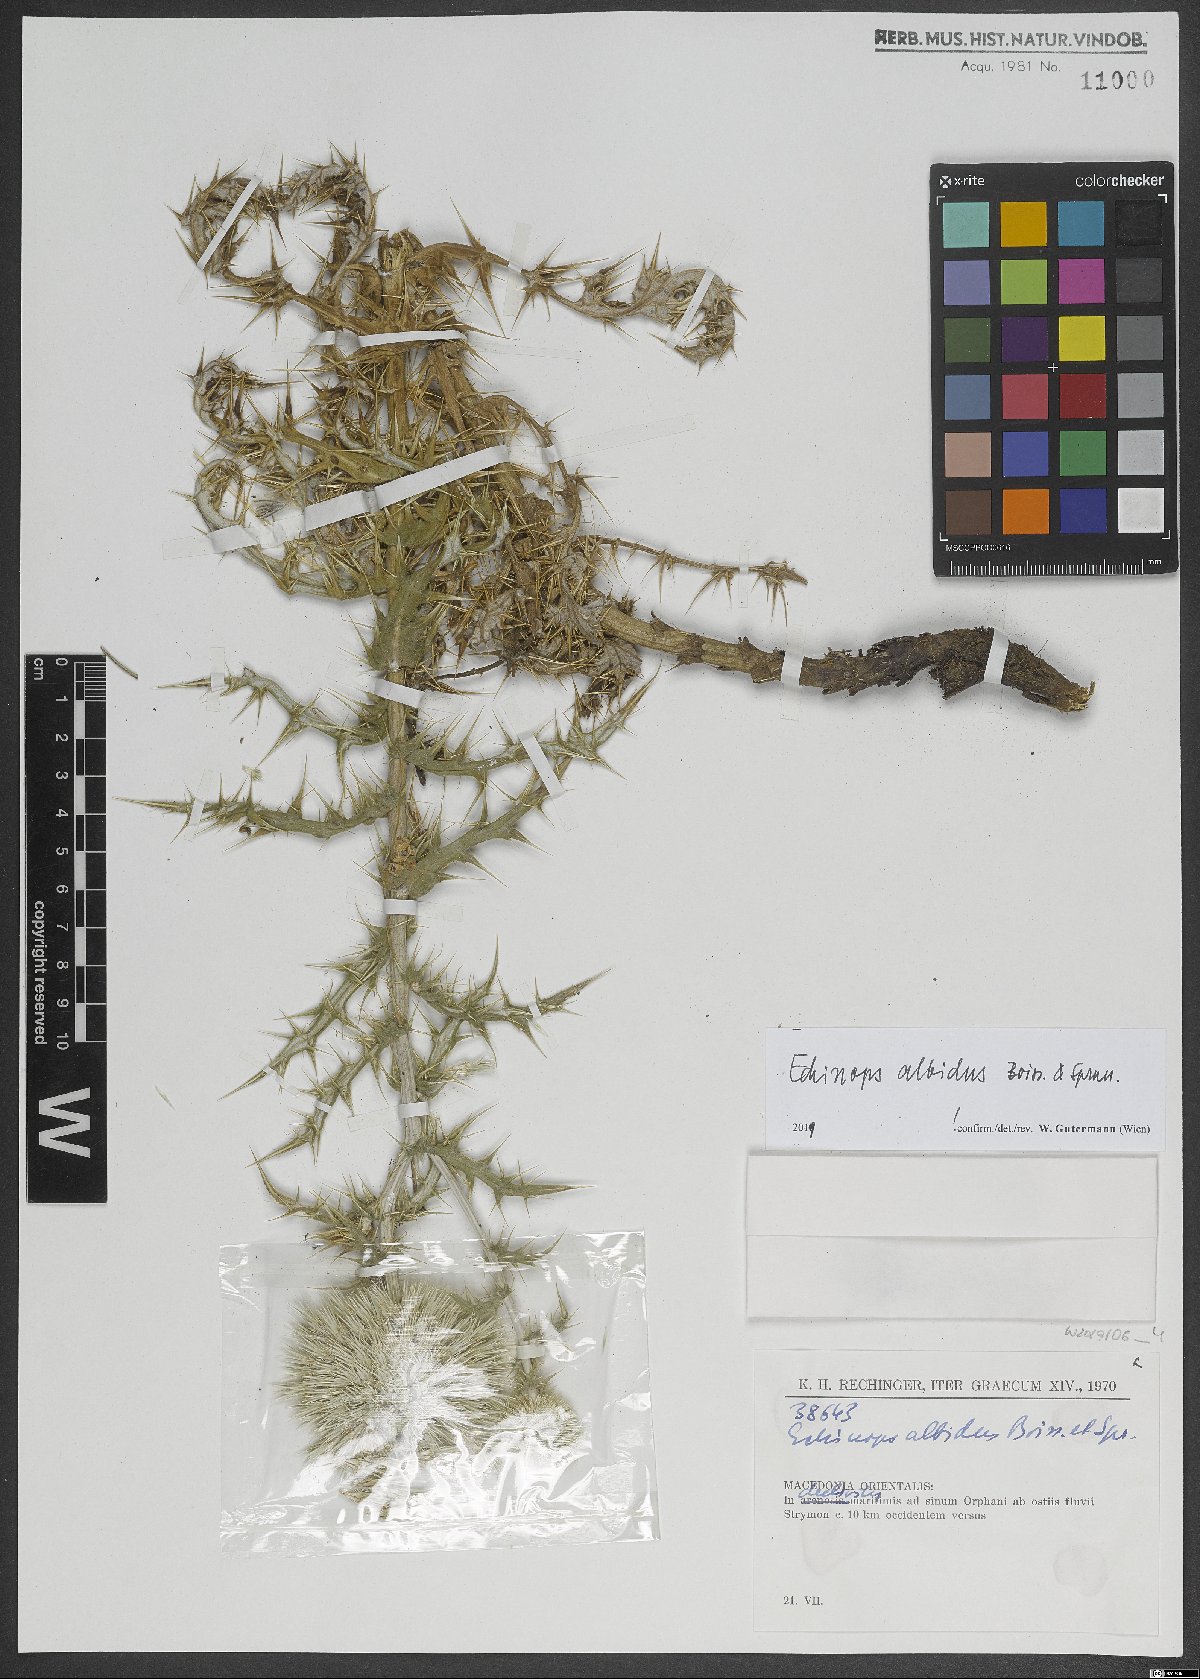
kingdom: Plantae
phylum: Tracheophyta
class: Magnoliopsida
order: Asterales
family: Asteraceae
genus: Echinops
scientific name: Echinops sphaerocephalus
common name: Glandular globe-thistle
